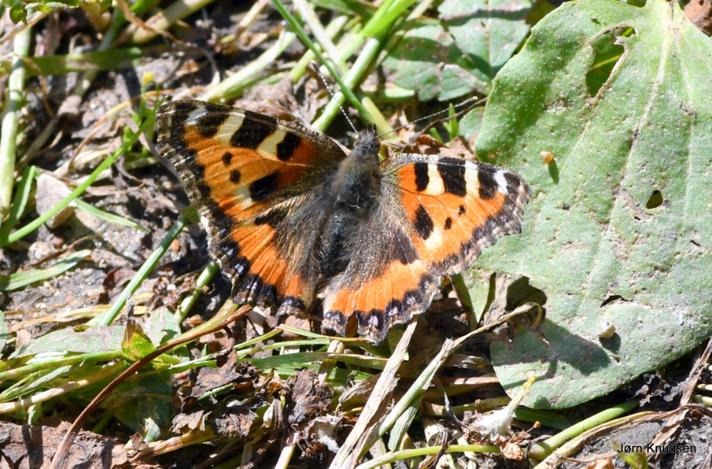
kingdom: Animalia
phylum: Arthropoda
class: Insecta
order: Lepidoptera
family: Nymphalidae
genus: Aglais
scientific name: Aglais urticae
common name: Nældens takvinge
